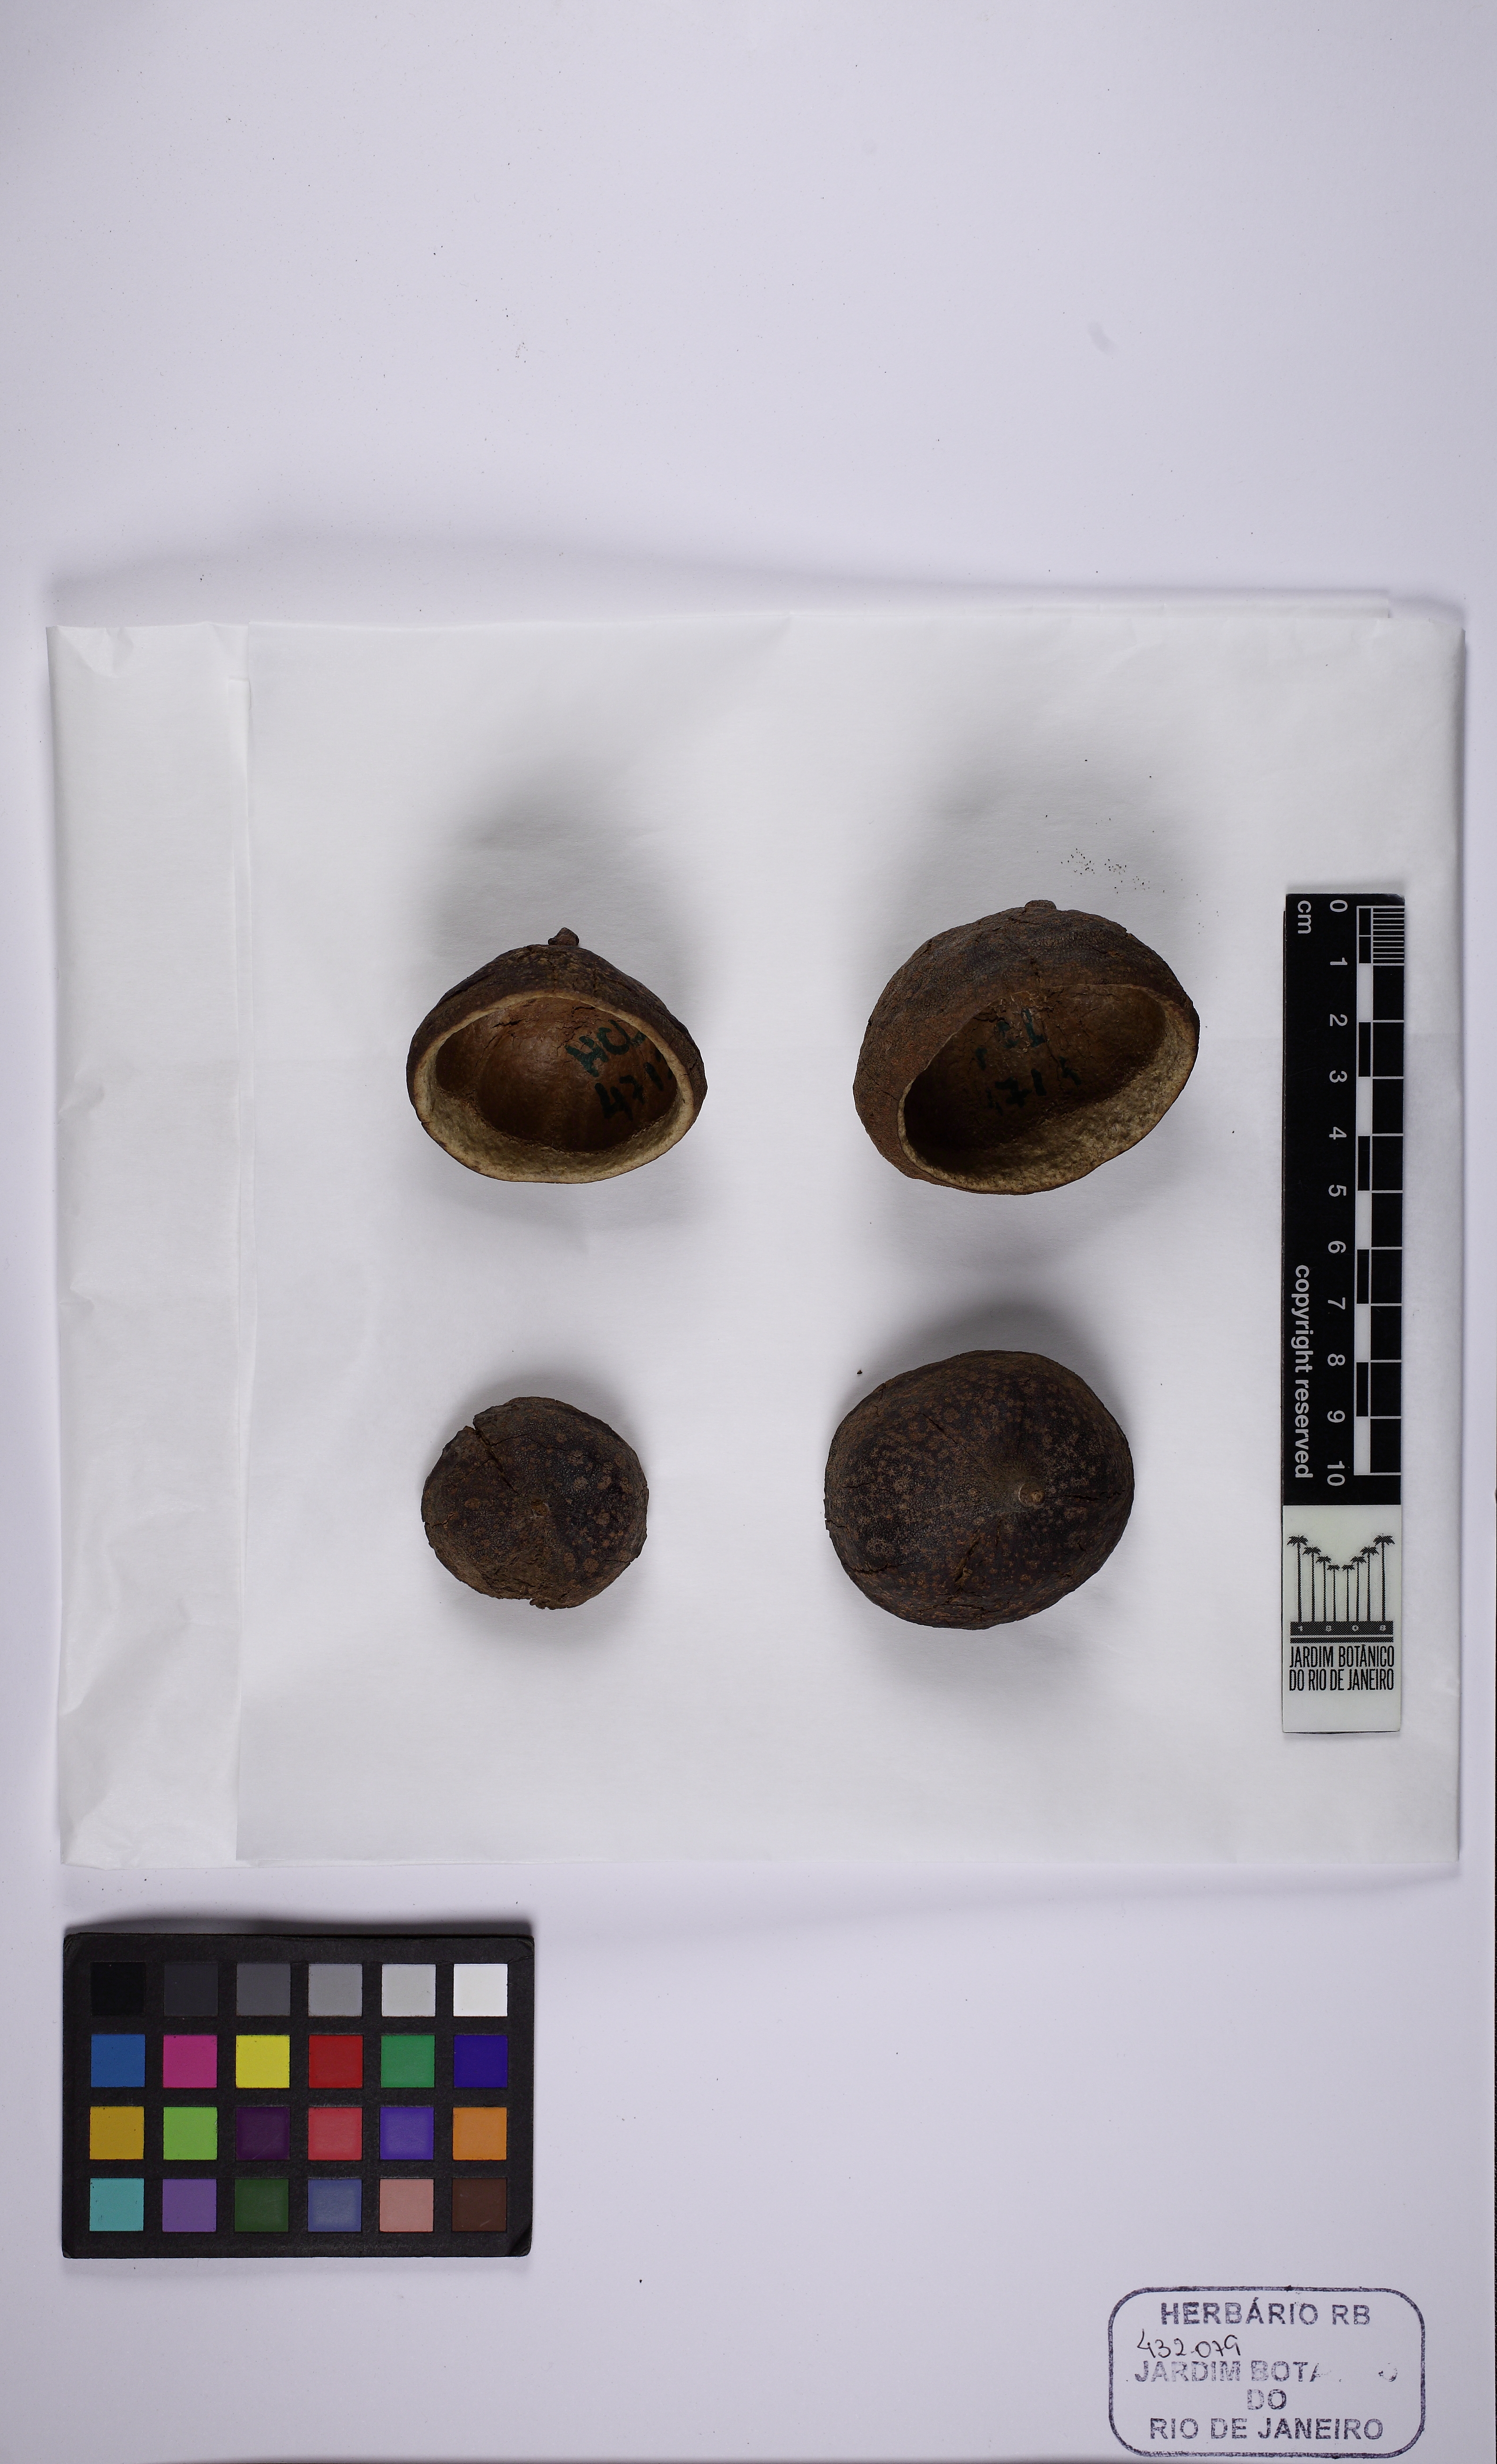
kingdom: Plantae
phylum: Tracheophyta
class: Magnoliopsida
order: Ericales
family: Lecythidaceae
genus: Eschweilera
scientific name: Eschweilera compressa
